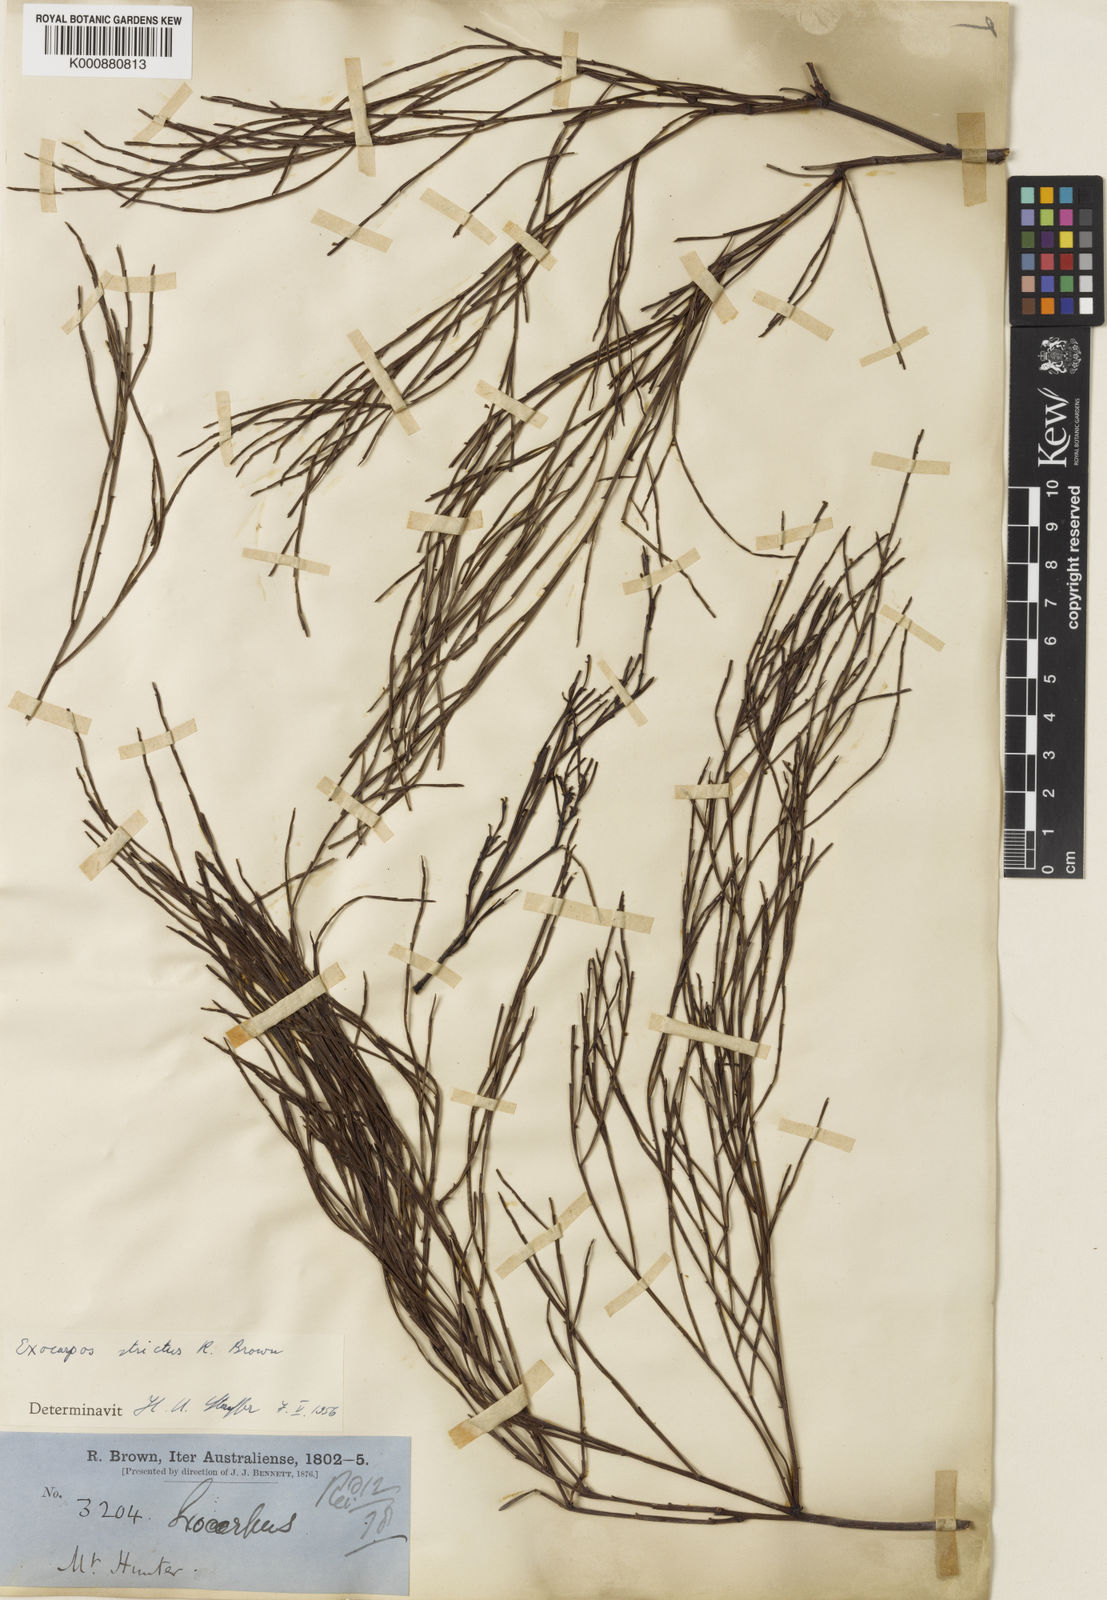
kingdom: Plantae
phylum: Tracheophyta
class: Magnoliopsida
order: Santalales
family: Santalaceae
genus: Exocarpos
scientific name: Exocarpos strictus
